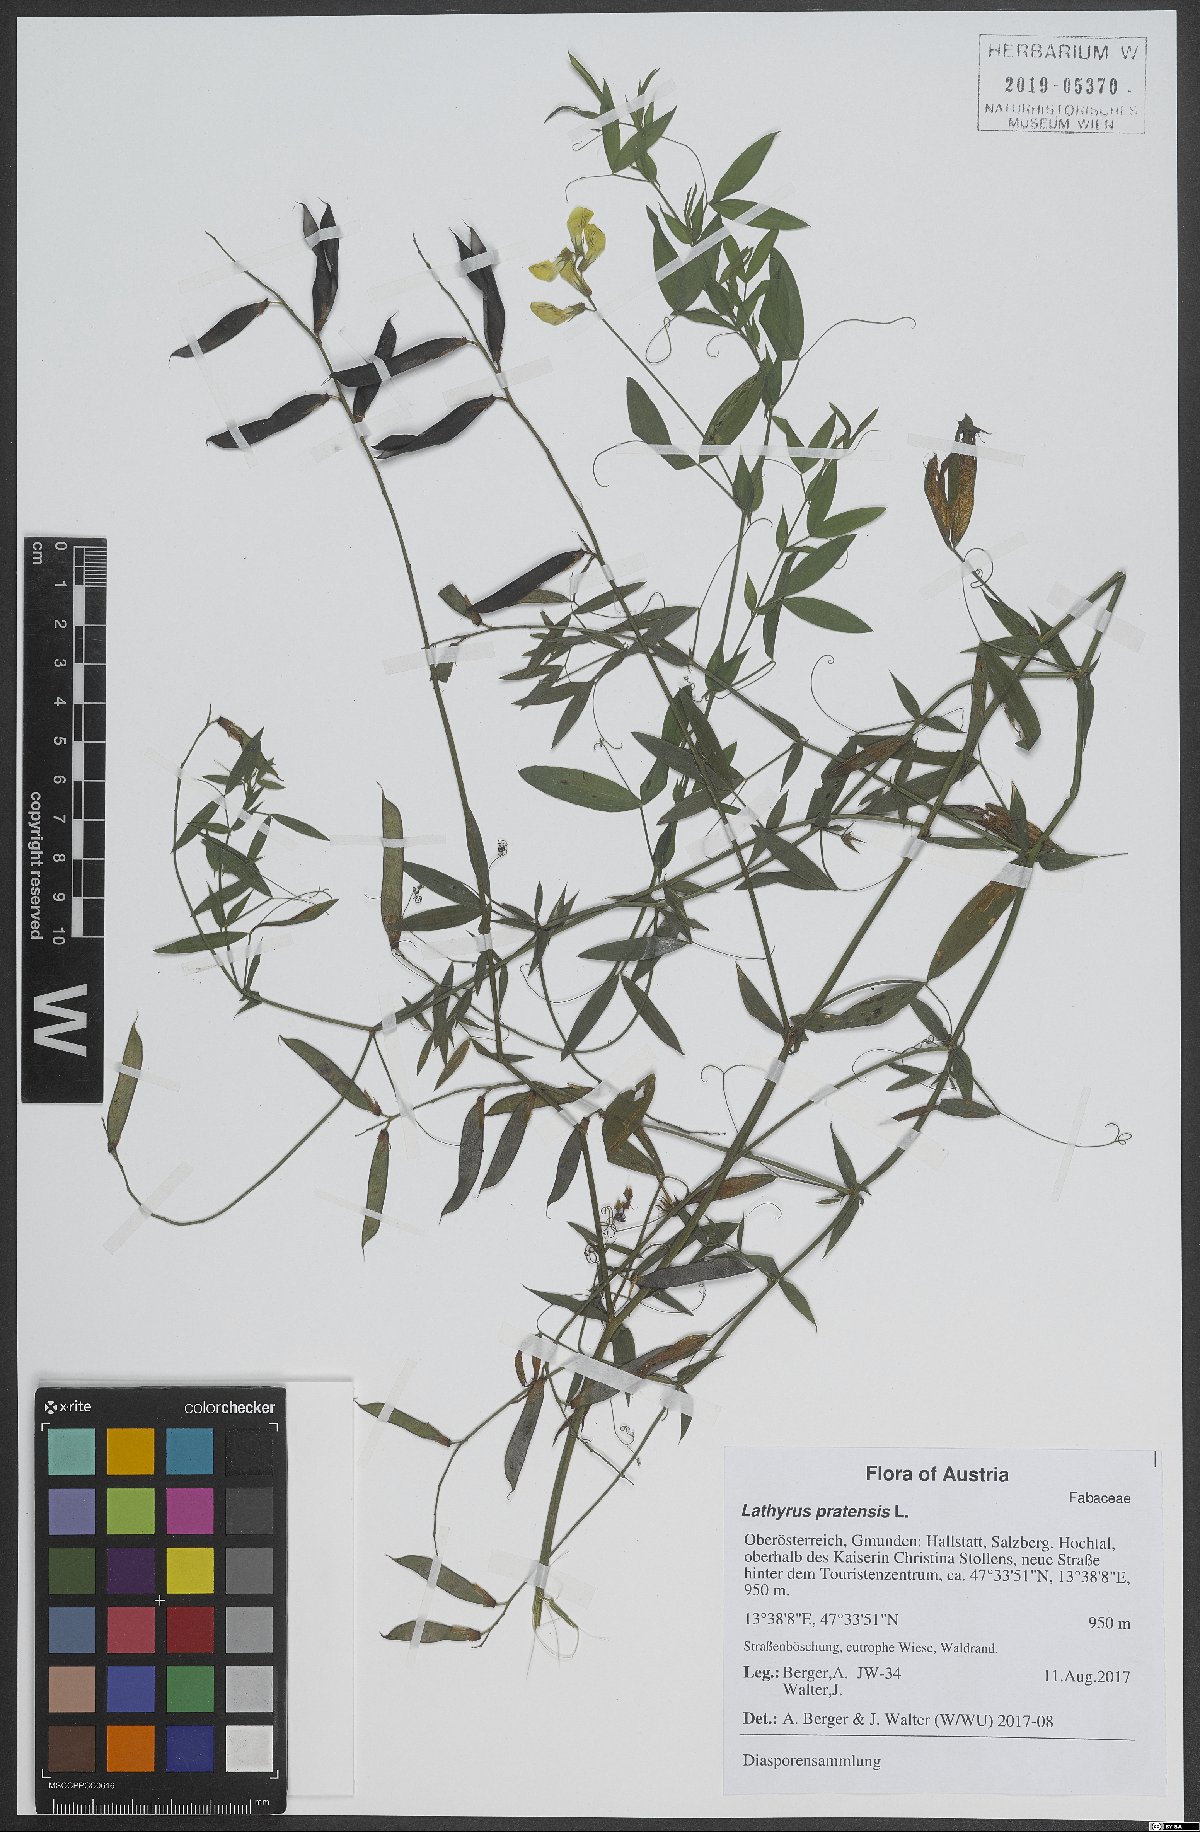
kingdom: Plantae
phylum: Tracheophyta
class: Magnoliopsida
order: Fabales
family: Fabaceae
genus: Lathyrus
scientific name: Lathyrus pratensis
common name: Meadow vetchling
